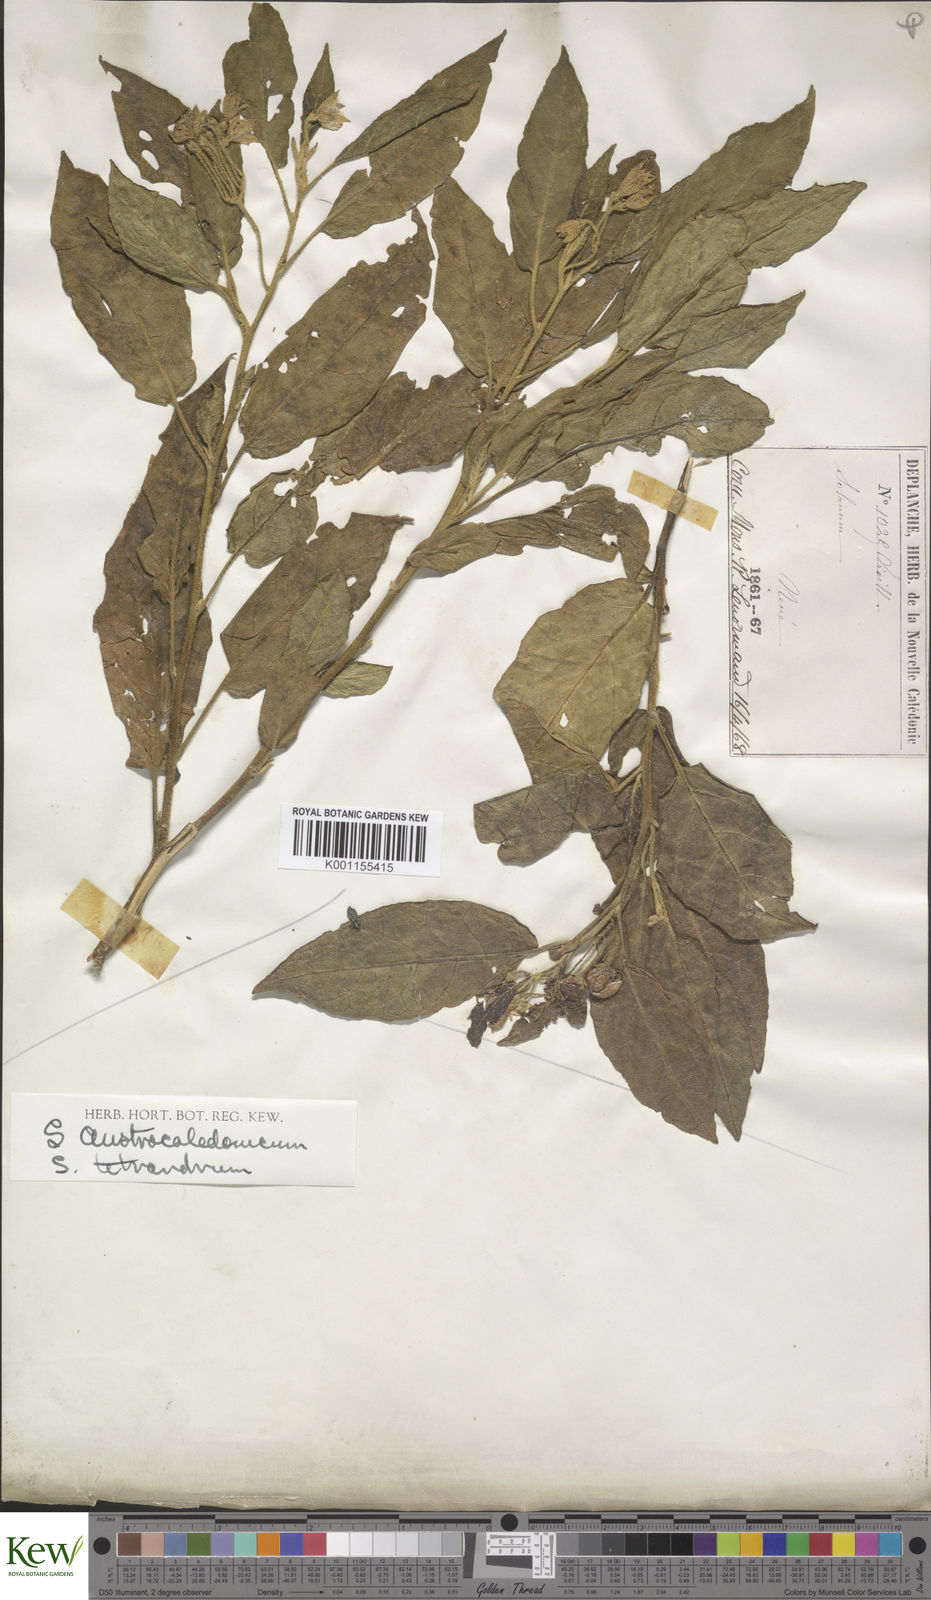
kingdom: Plantae
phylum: Tracheophyta
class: Magnoliopsida
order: Solanales
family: Solanaceae
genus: Solanum
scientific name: Solanum tetrandrum
